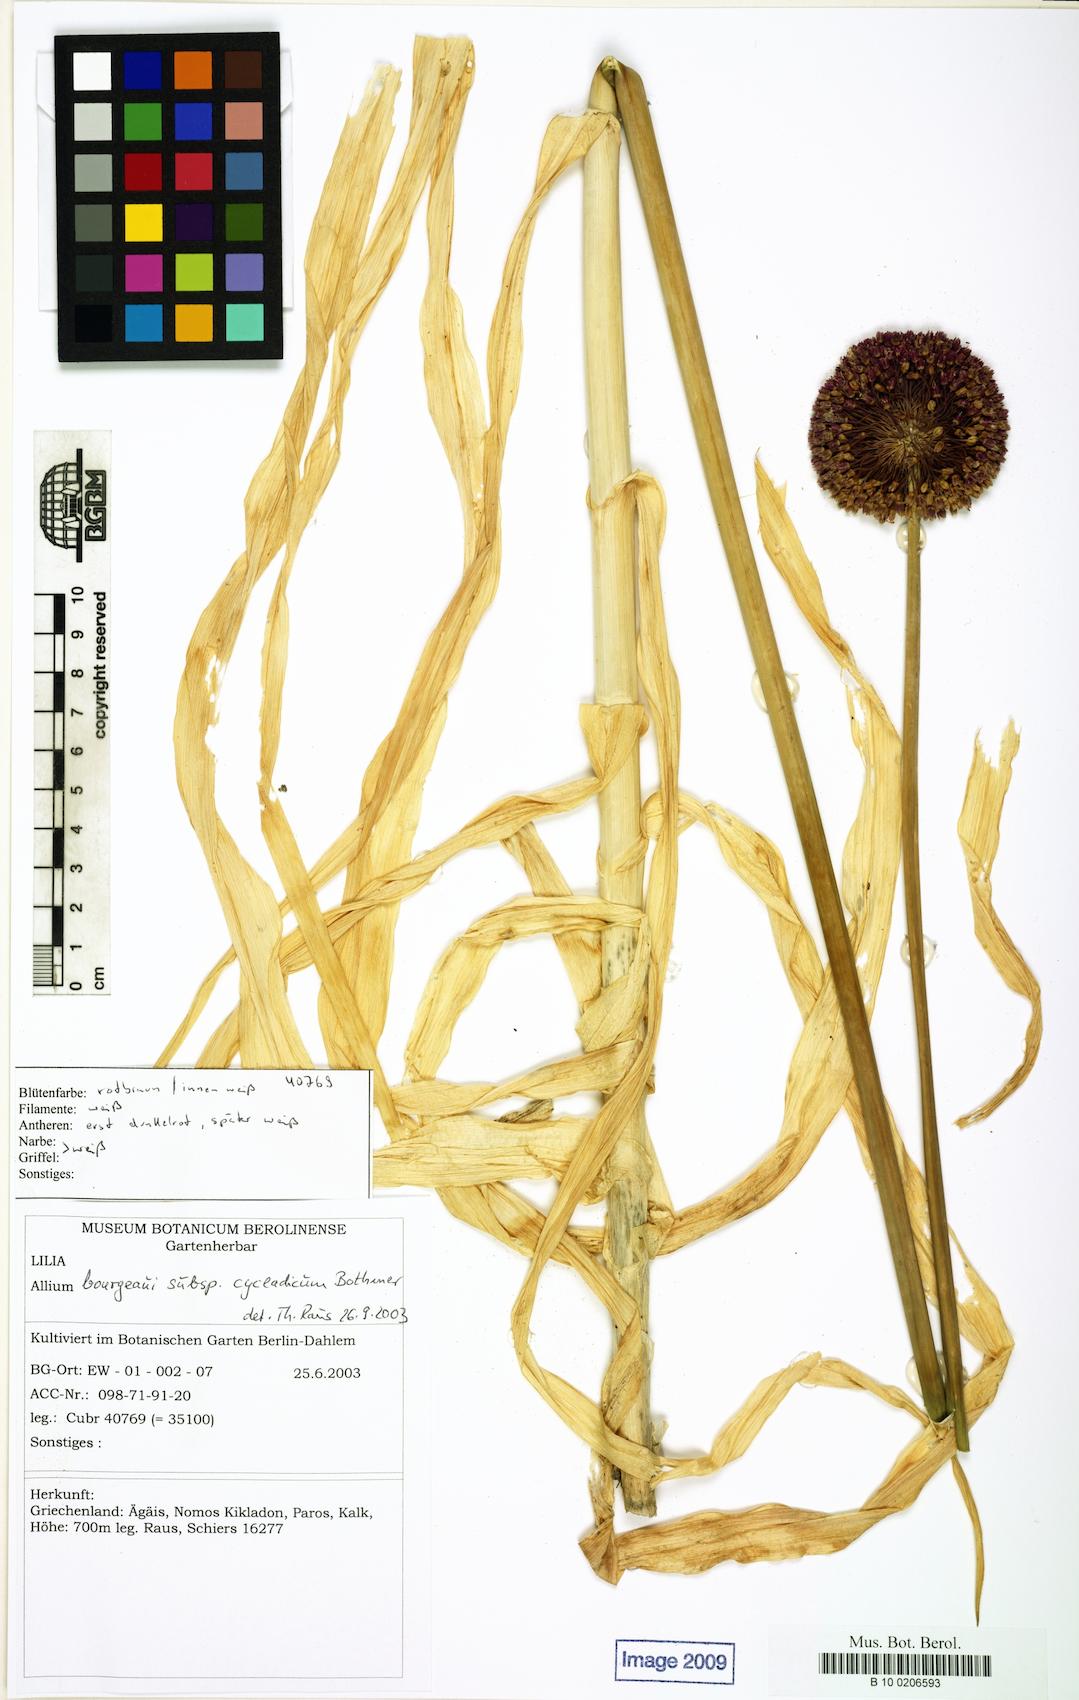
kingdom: Plantae
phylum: Tracheophyta
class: Liliopsida
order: Liliales
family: Liliaceae
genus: Allium
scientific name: Allium
